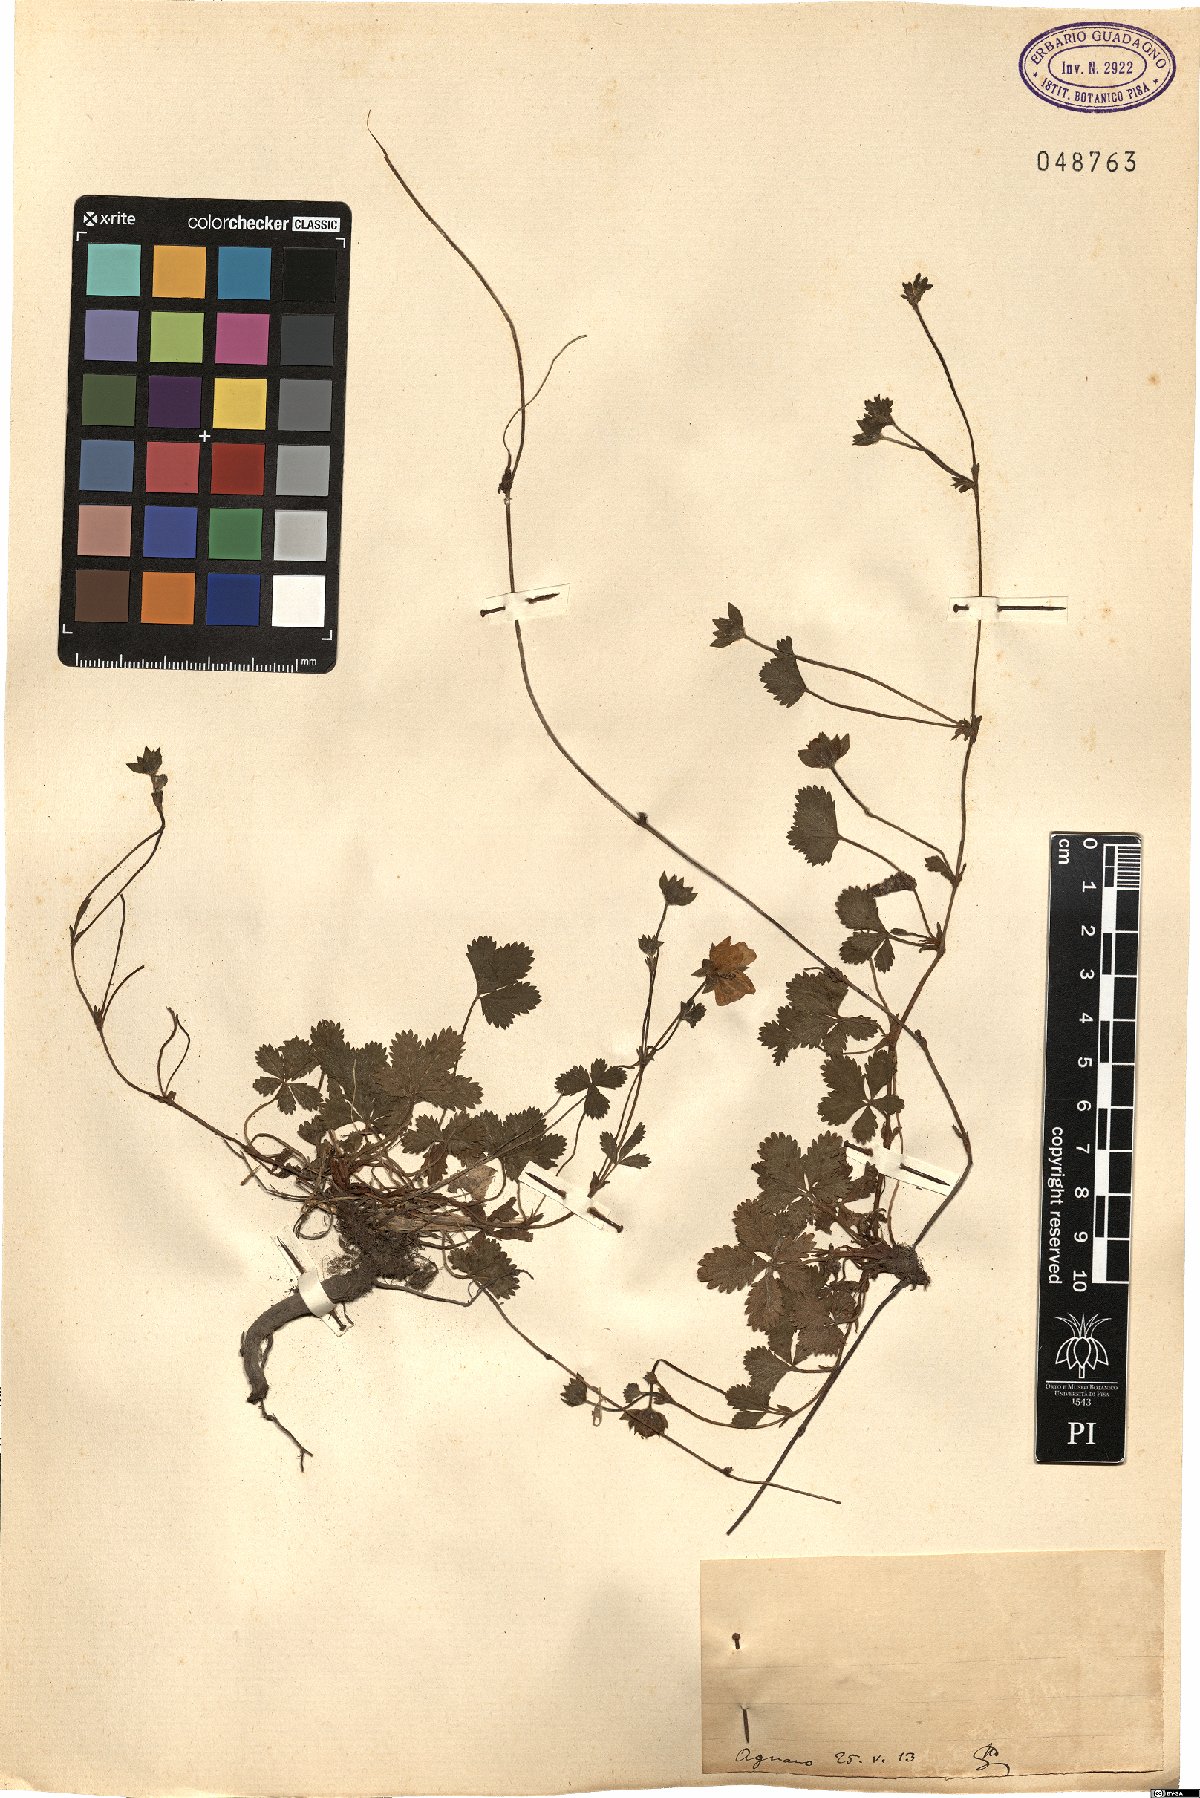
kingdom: Plantae
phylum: Tracheophyta
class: Magnoliopsida
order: Rosales
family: Rosaceae
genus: Potentilla
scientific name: Potentilla
